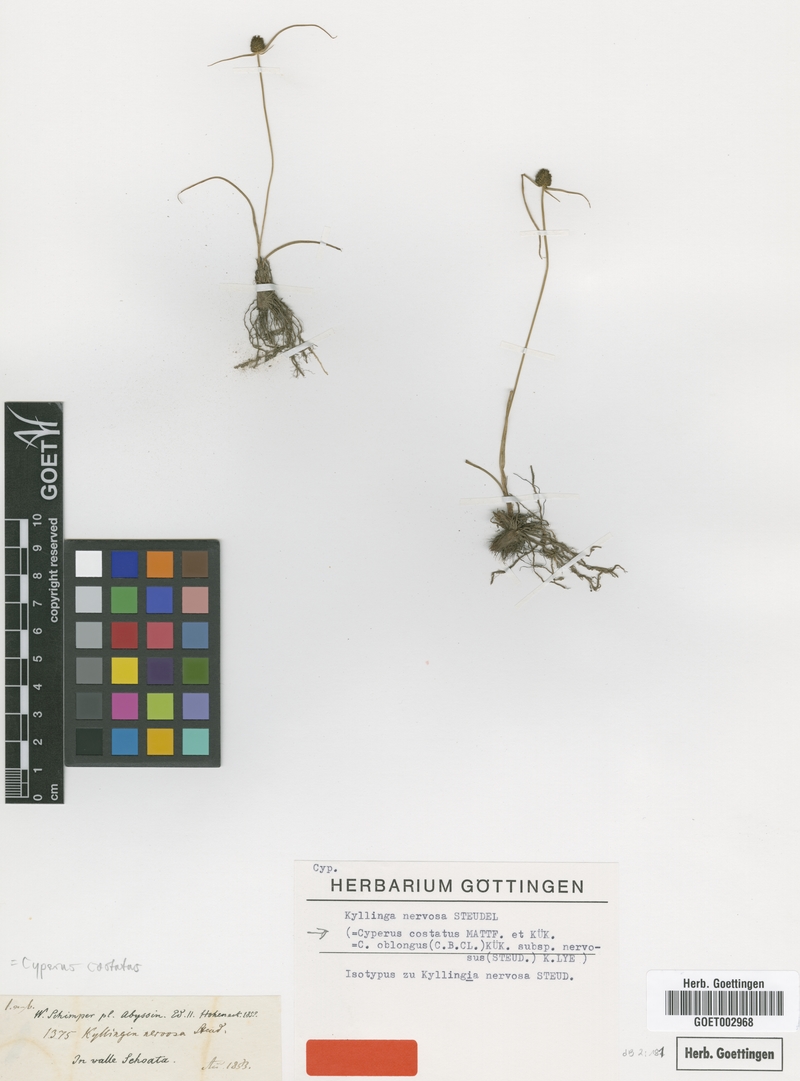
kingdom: Plantae
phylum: Tracheophyta
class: Liliopsida
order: Poales
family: Cyperaceae
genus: Cyperus
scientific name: Cyperus costatus
